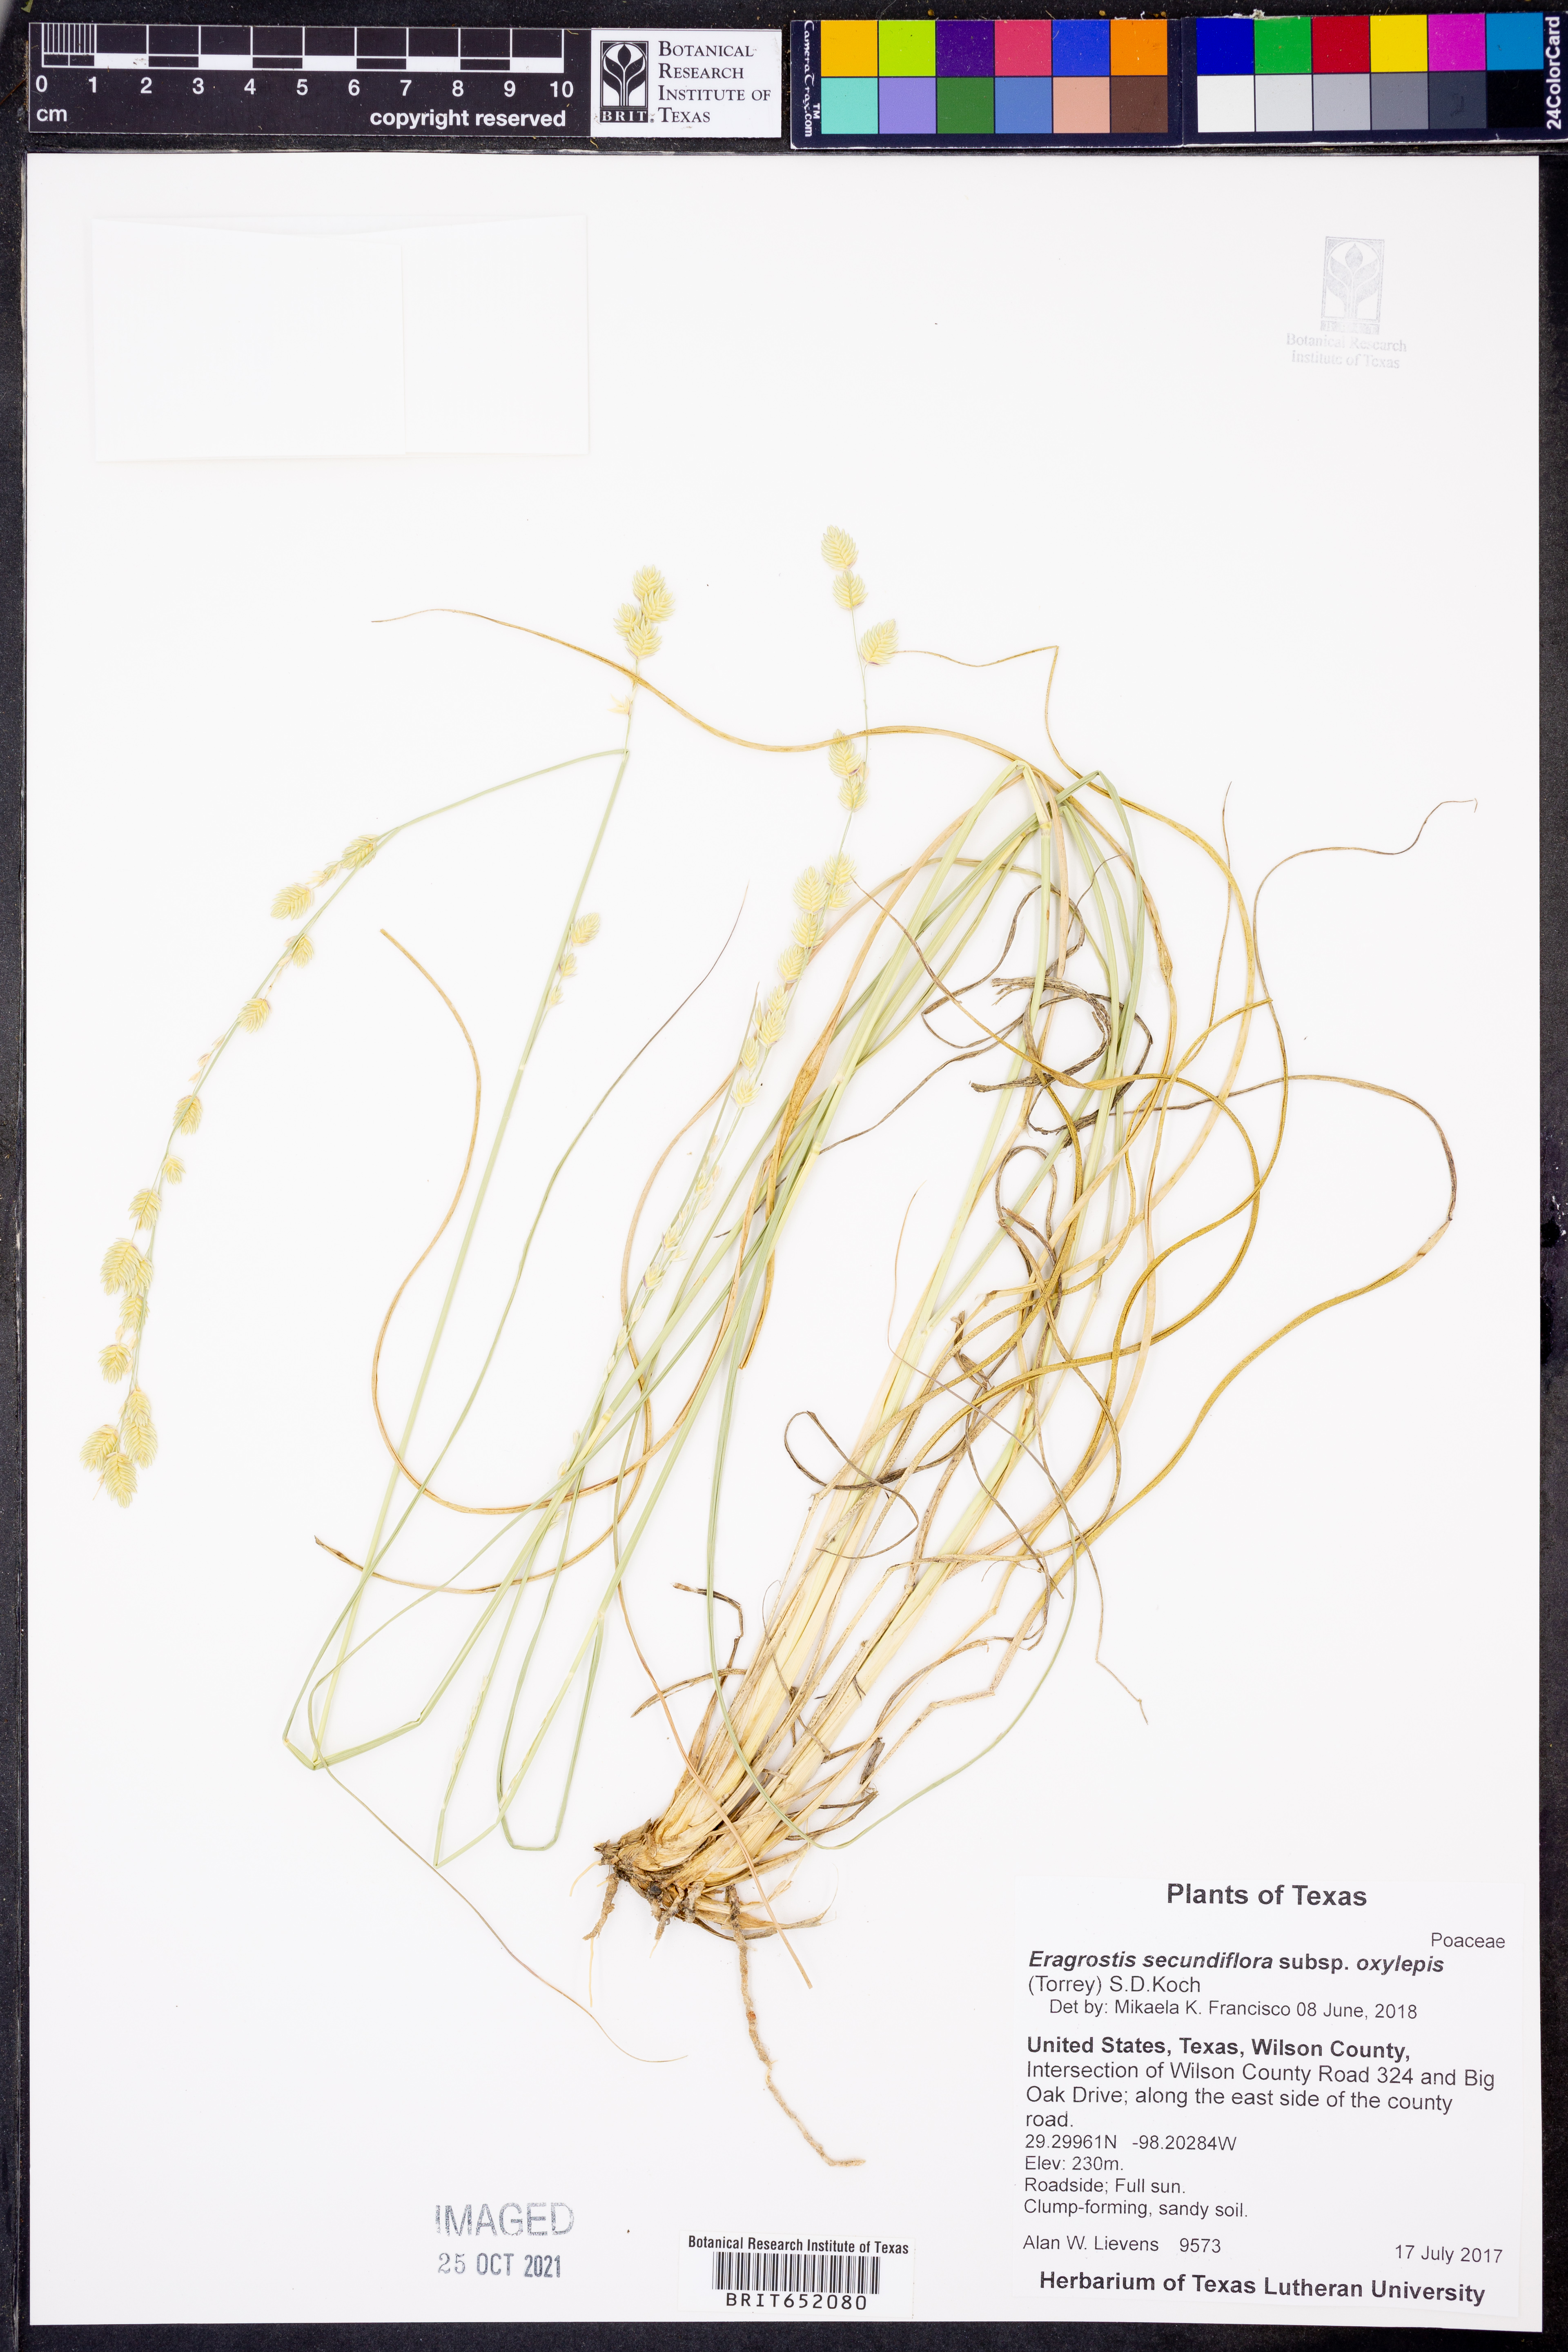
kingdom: Plantae
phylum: Tracheophyta
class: Liliopsida
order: Poales
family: Poaceae
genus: Eragrostis
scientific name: Eragrostis secundiflora
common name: Red love grass
